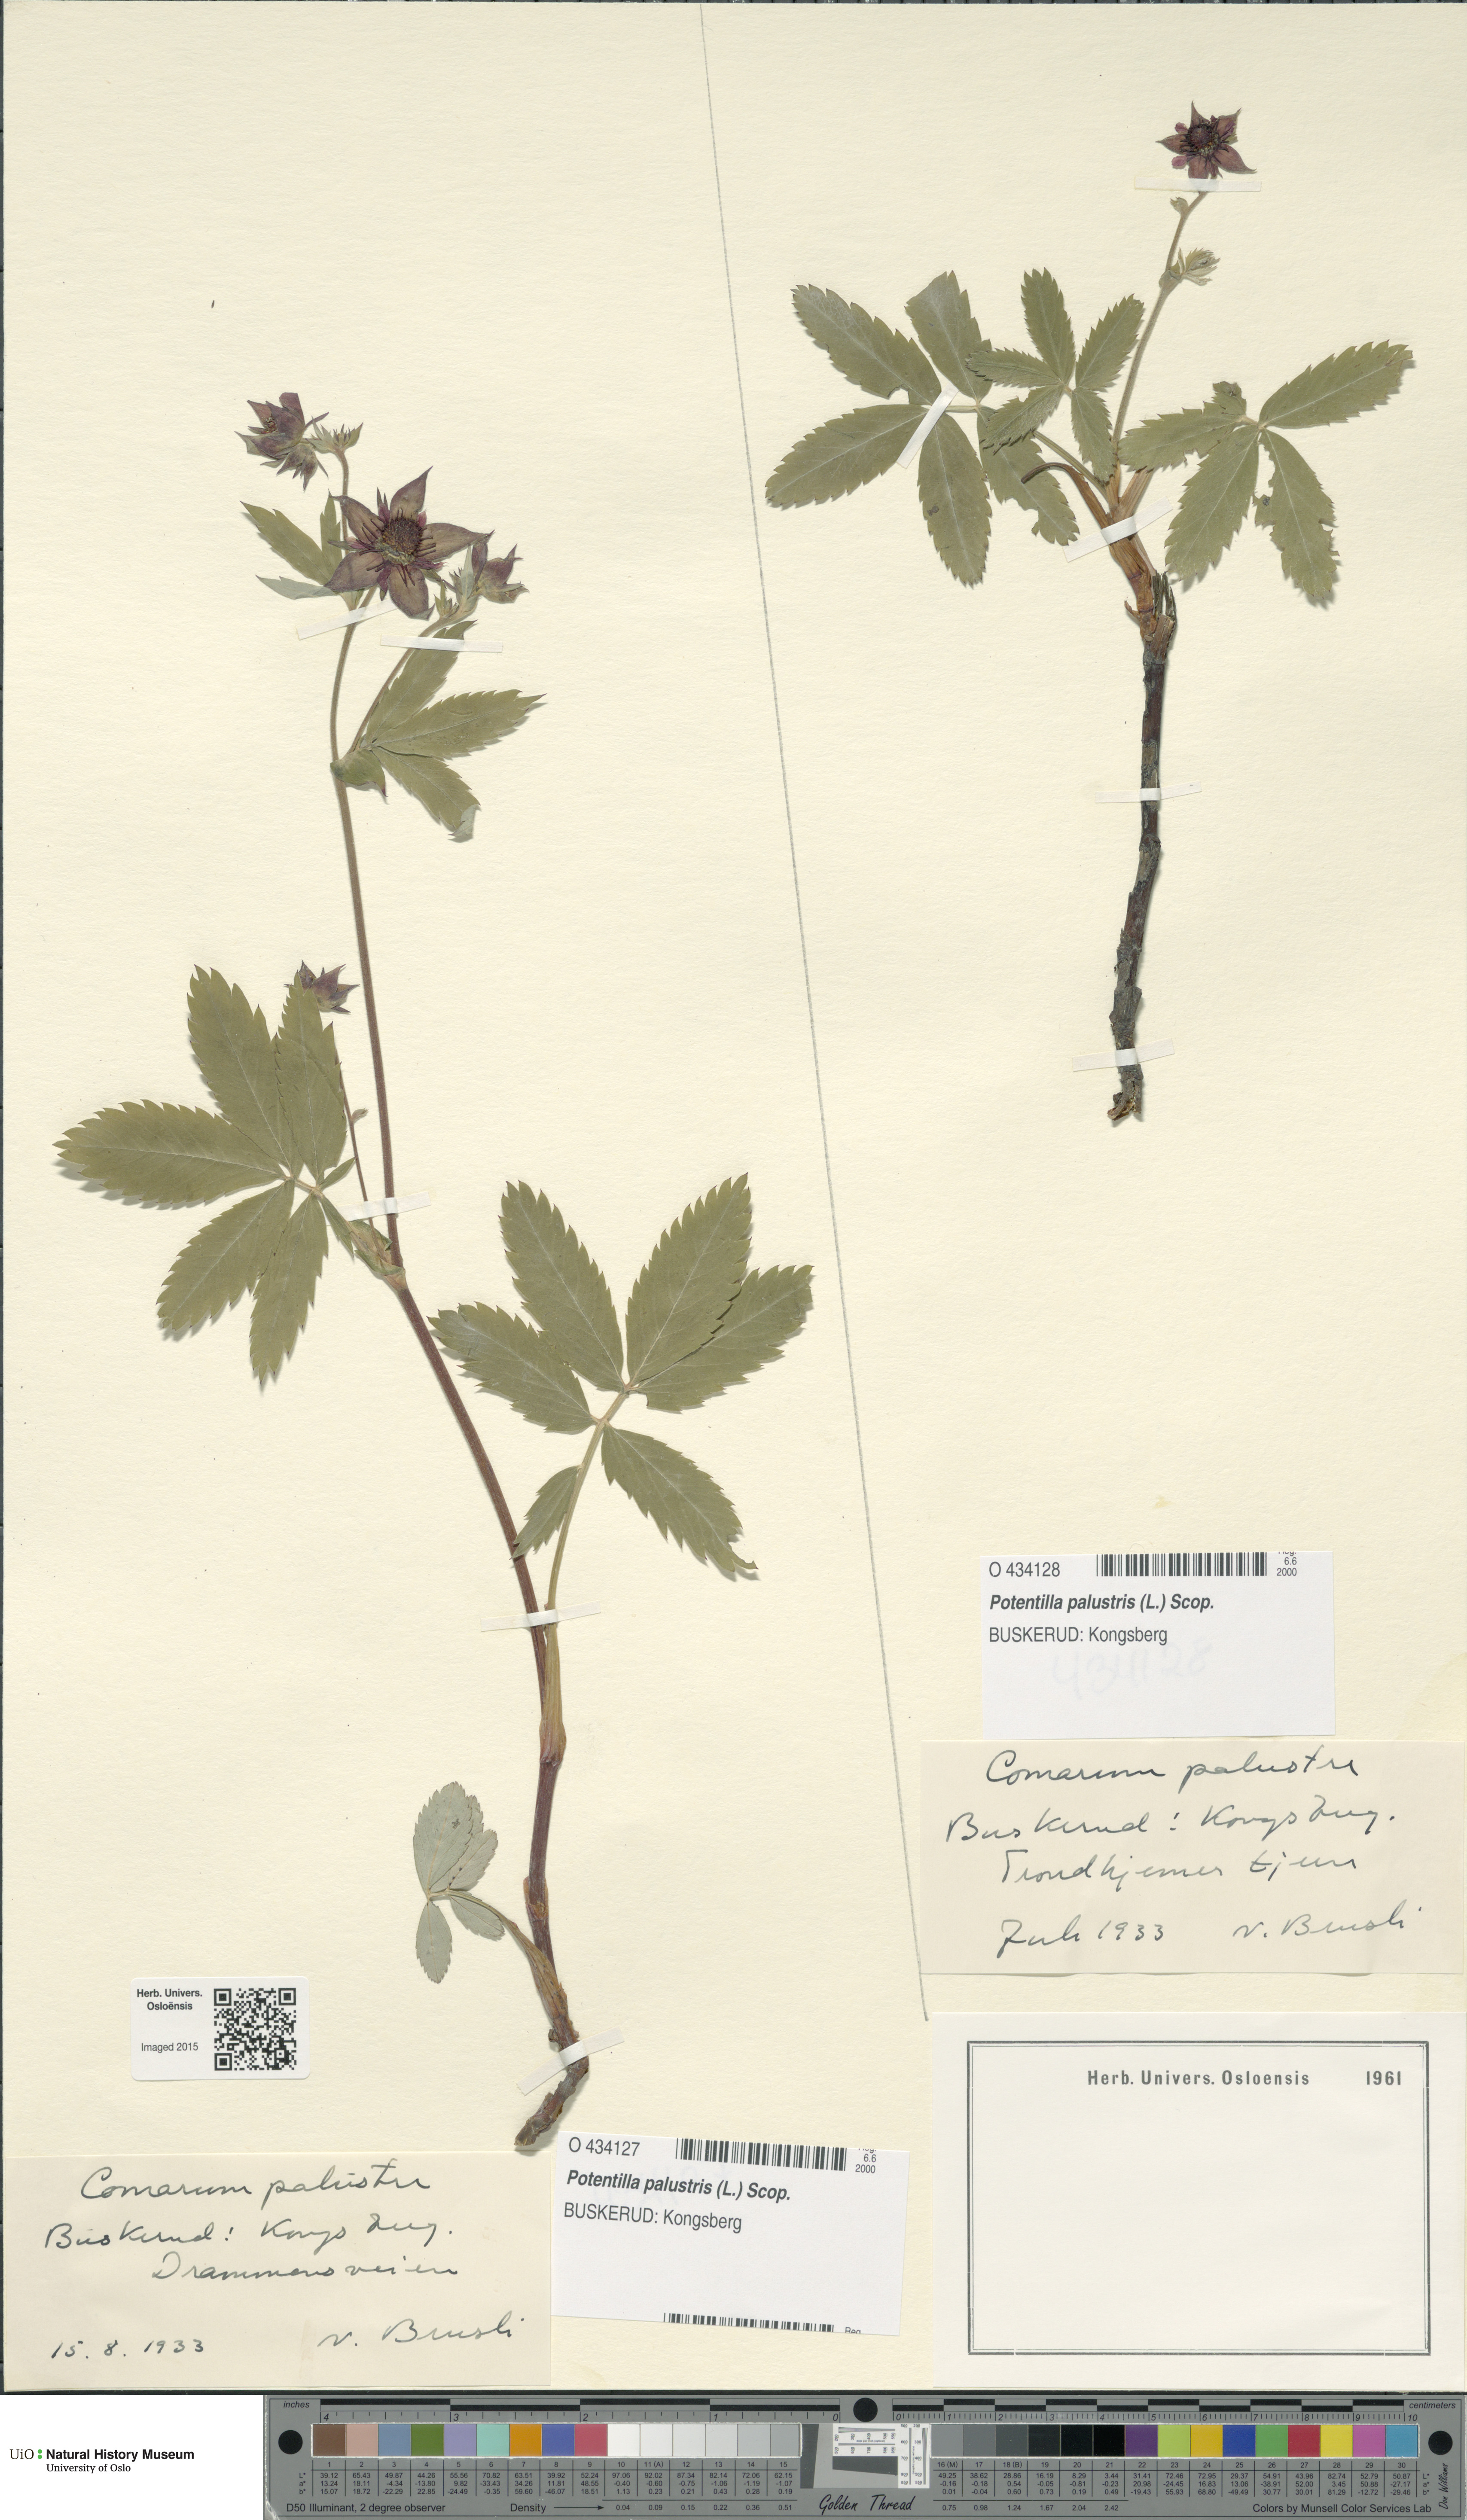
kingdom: Plantae
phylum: Tracheophyta
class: Magnoliopsida
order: Rosales
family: Rosaceae
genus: Comarum
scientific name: Comarum palustre
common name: Marsh cinquefoil
